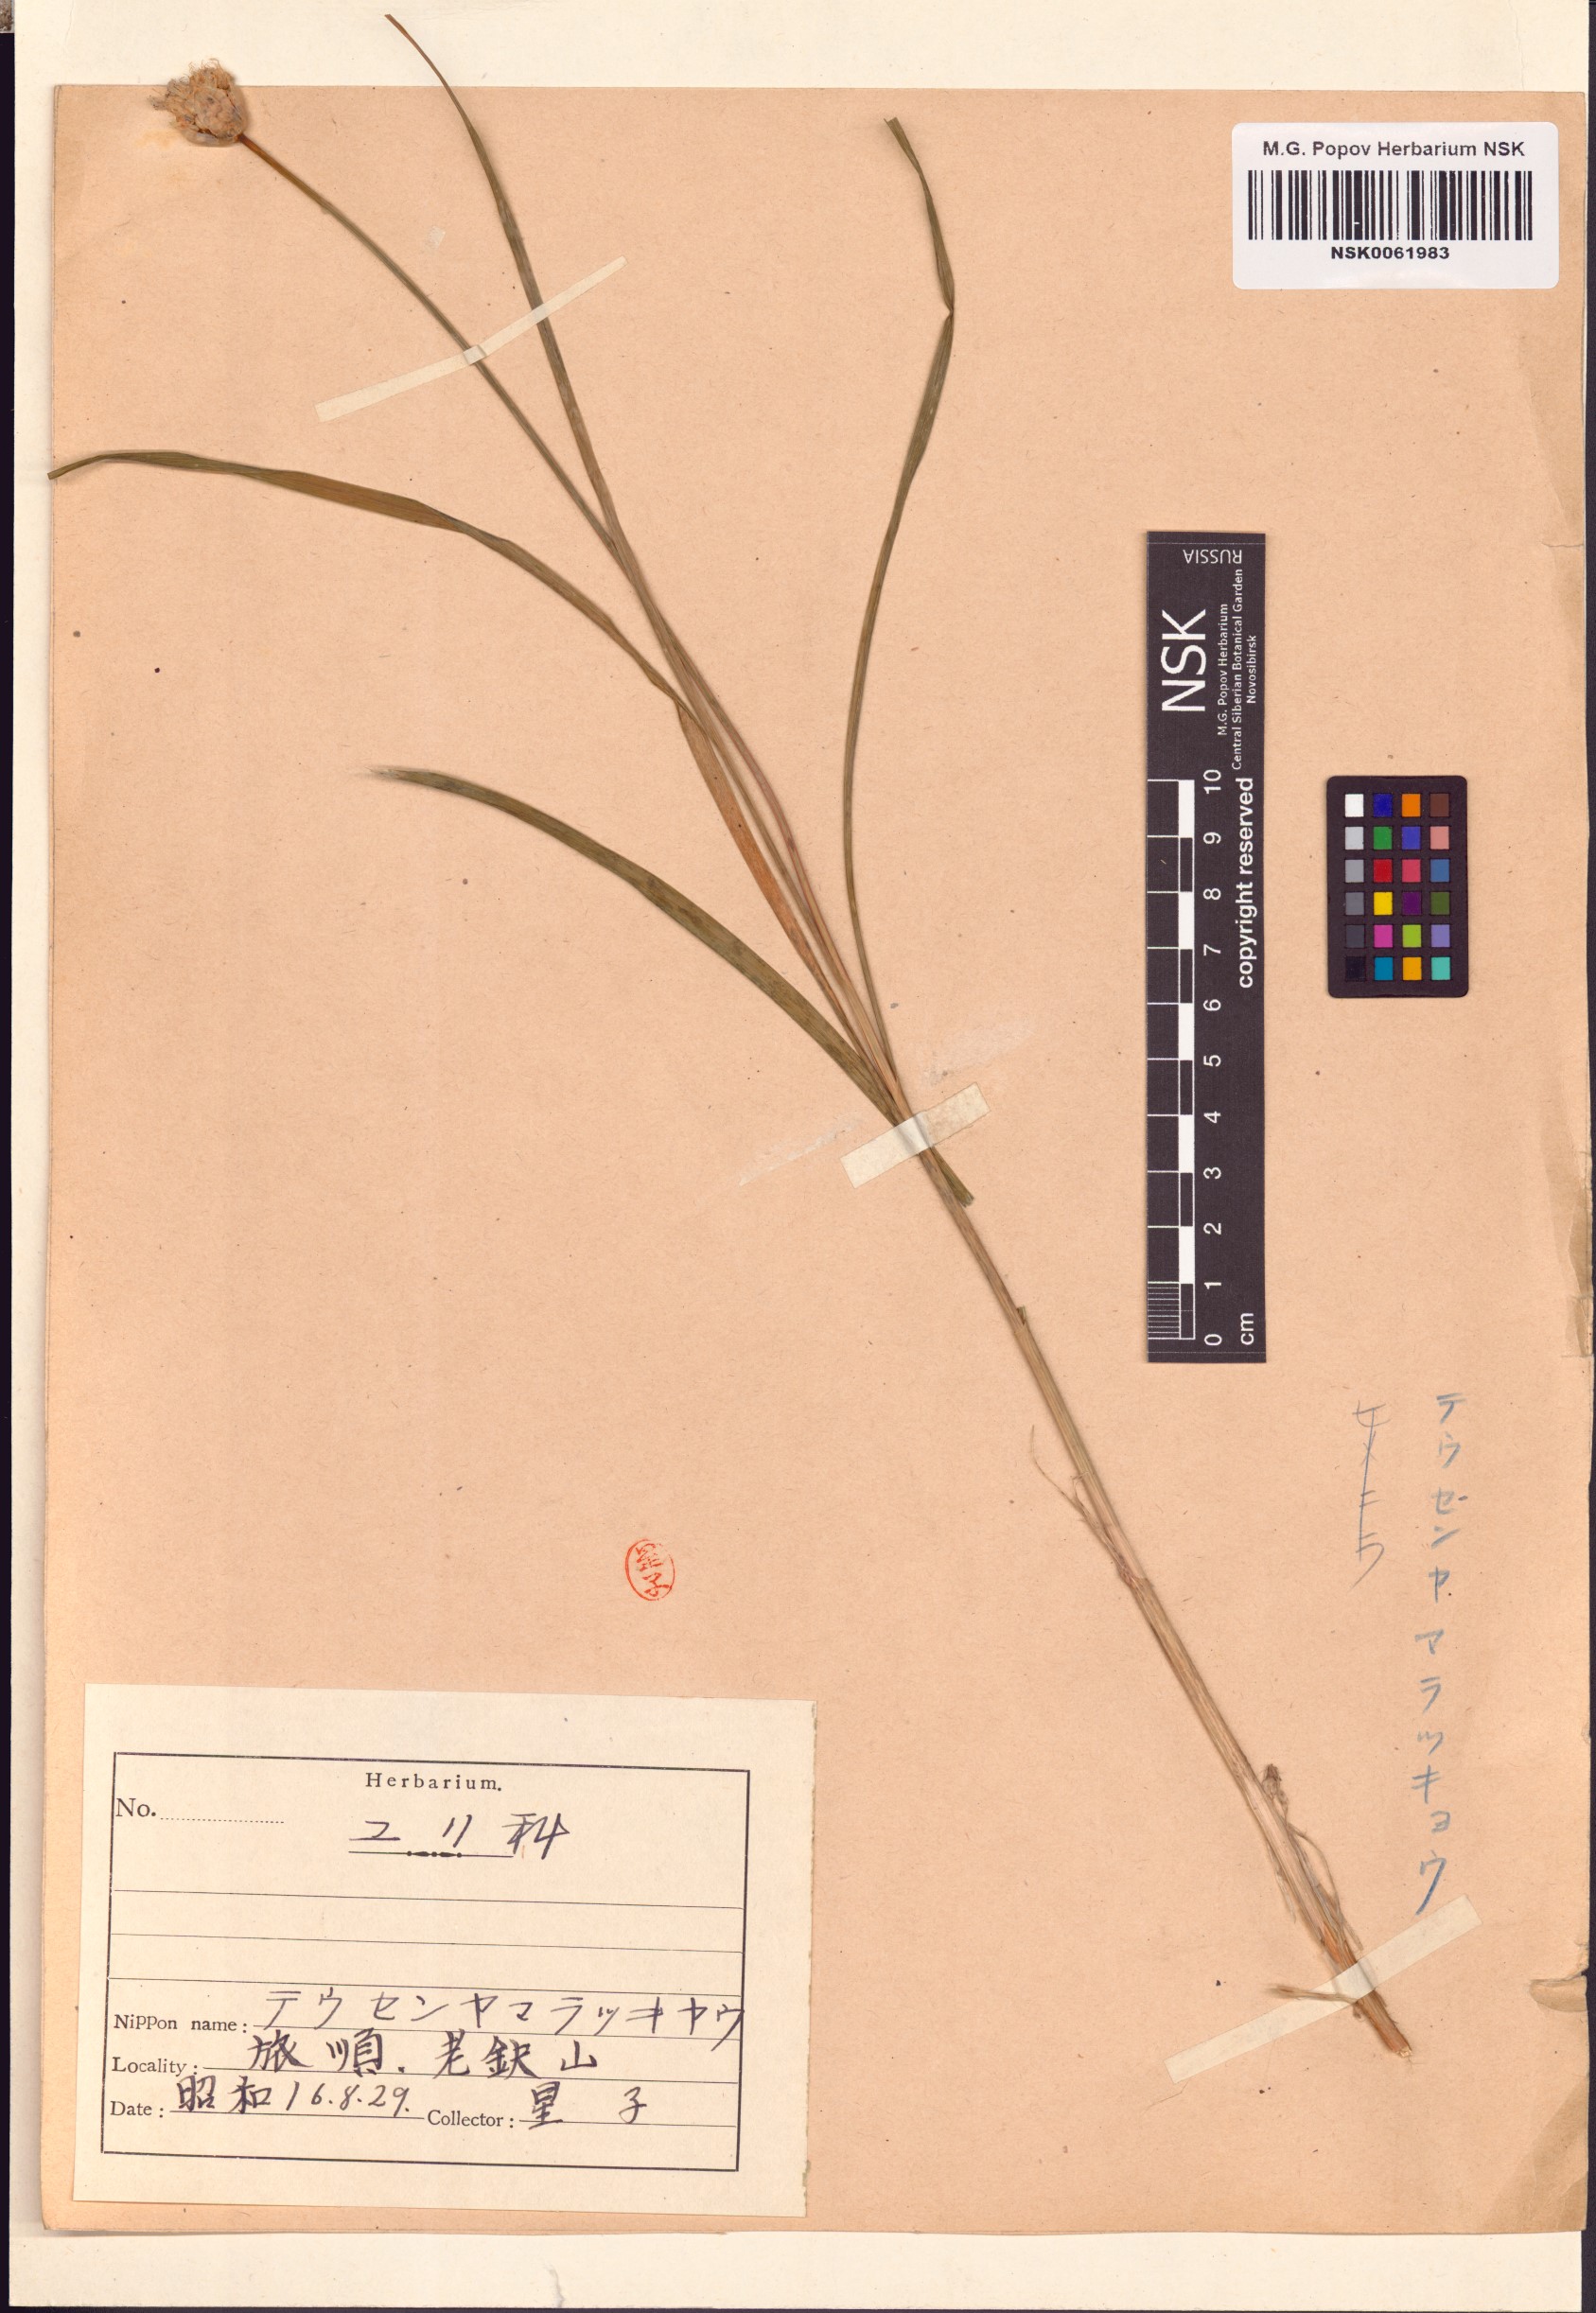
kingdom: Plantae
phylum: Tracheophyta
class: Liliopsida
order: Asparagales
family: Amaryllidaceae
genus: Allium
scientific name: Allium thunbergii
